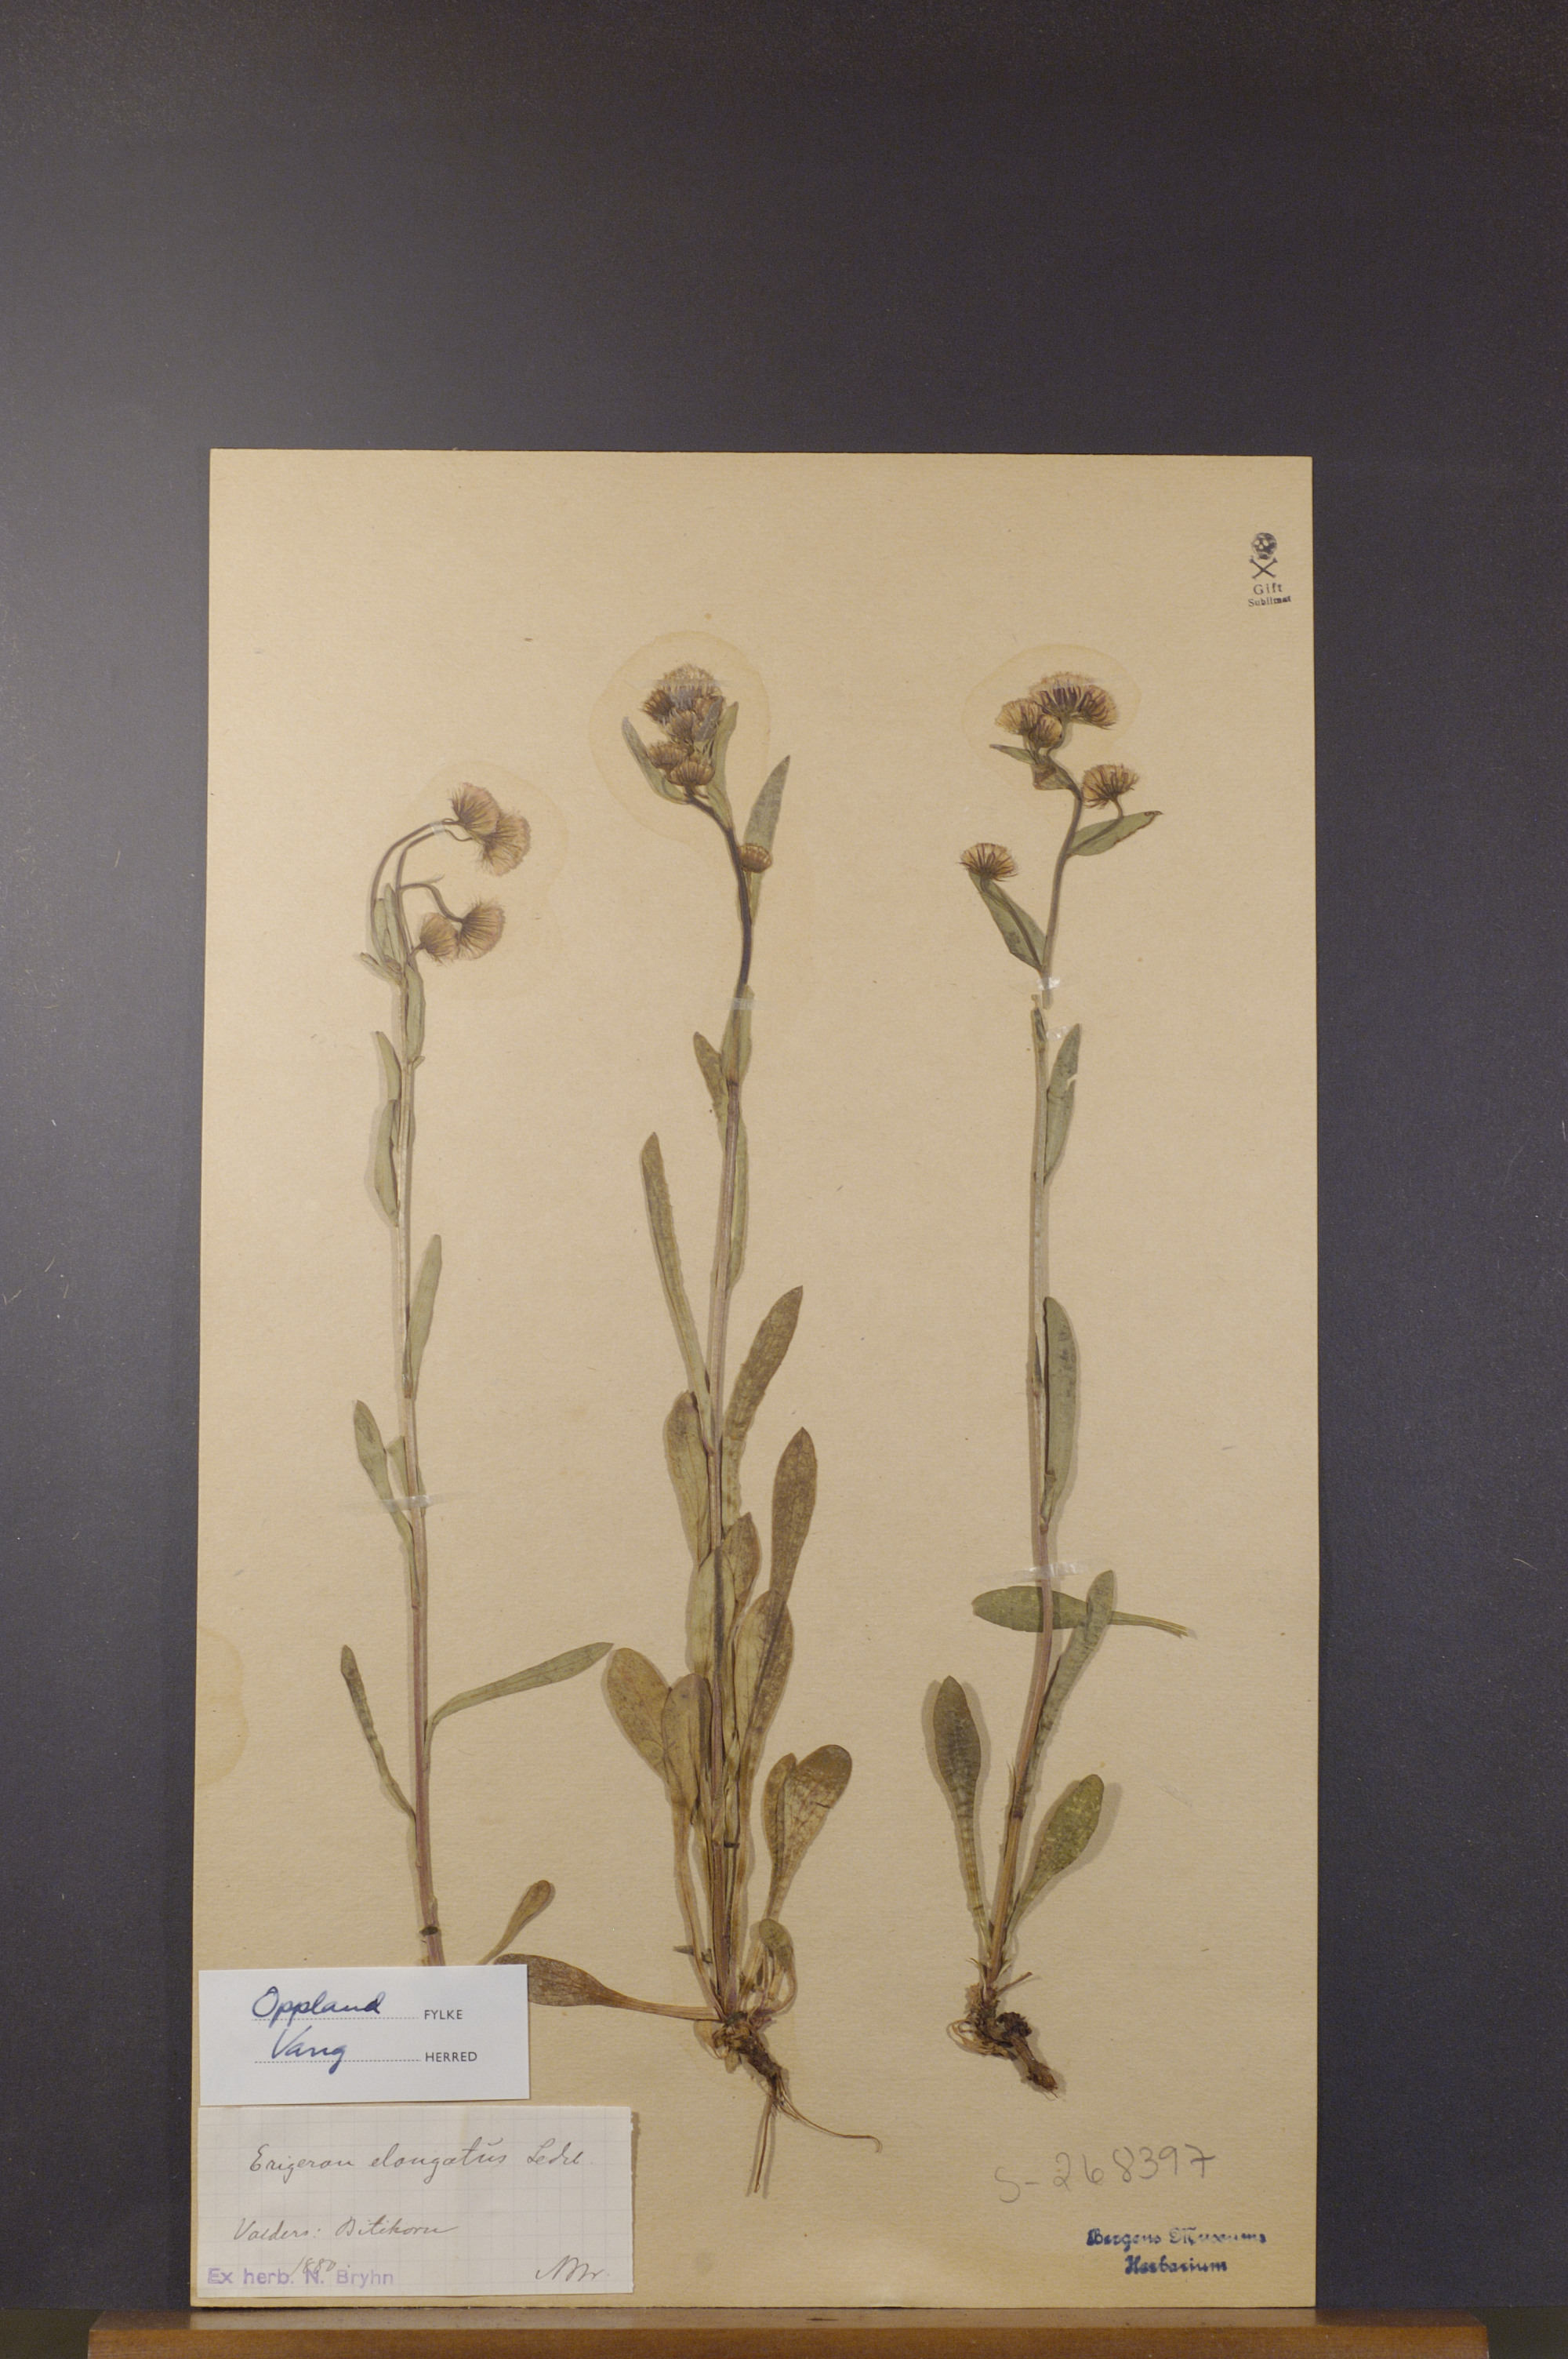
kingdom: Plantae
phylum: Tracheophyta
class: Magnoliopsida
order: Asterales
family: Asteraceae
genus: Erigeron
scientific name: Erigeron politus
